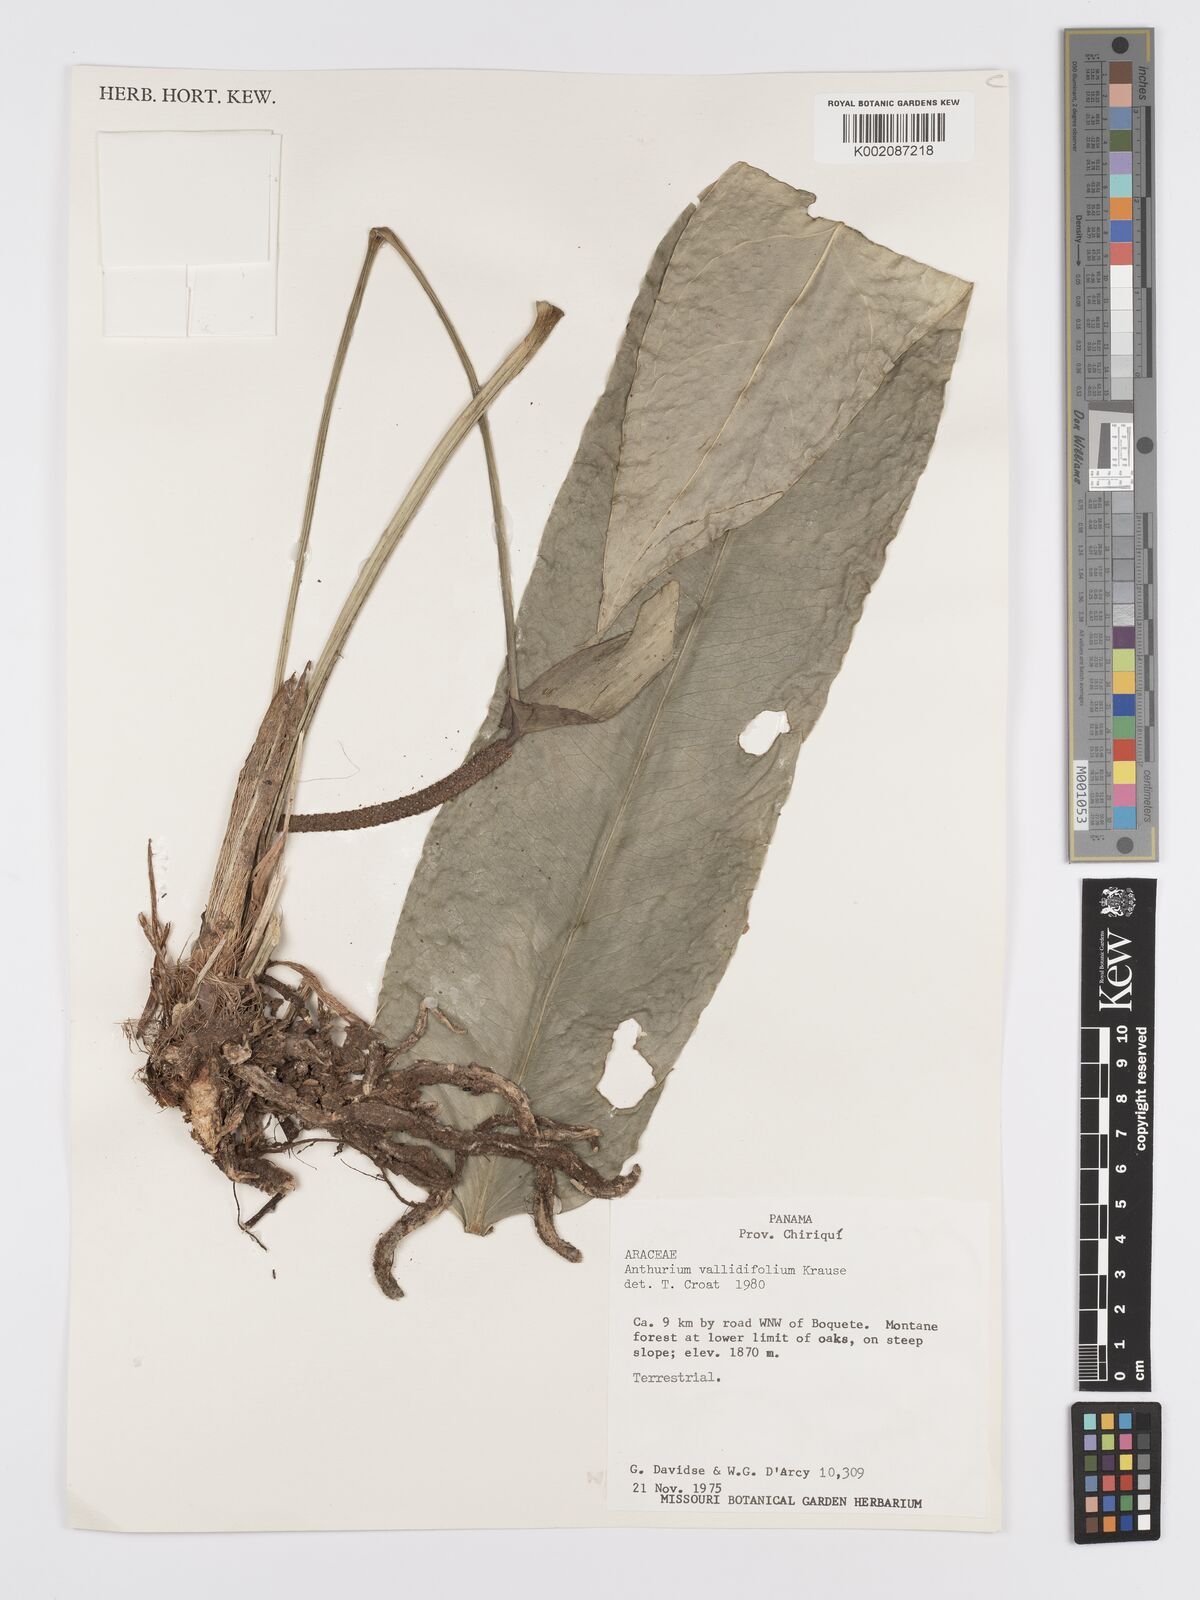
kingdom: Plantae
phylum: Tracheophyta
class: Liliopsida
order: Alismatales
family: Araceae
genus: Anthurium
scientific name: Anthurium validifolium
